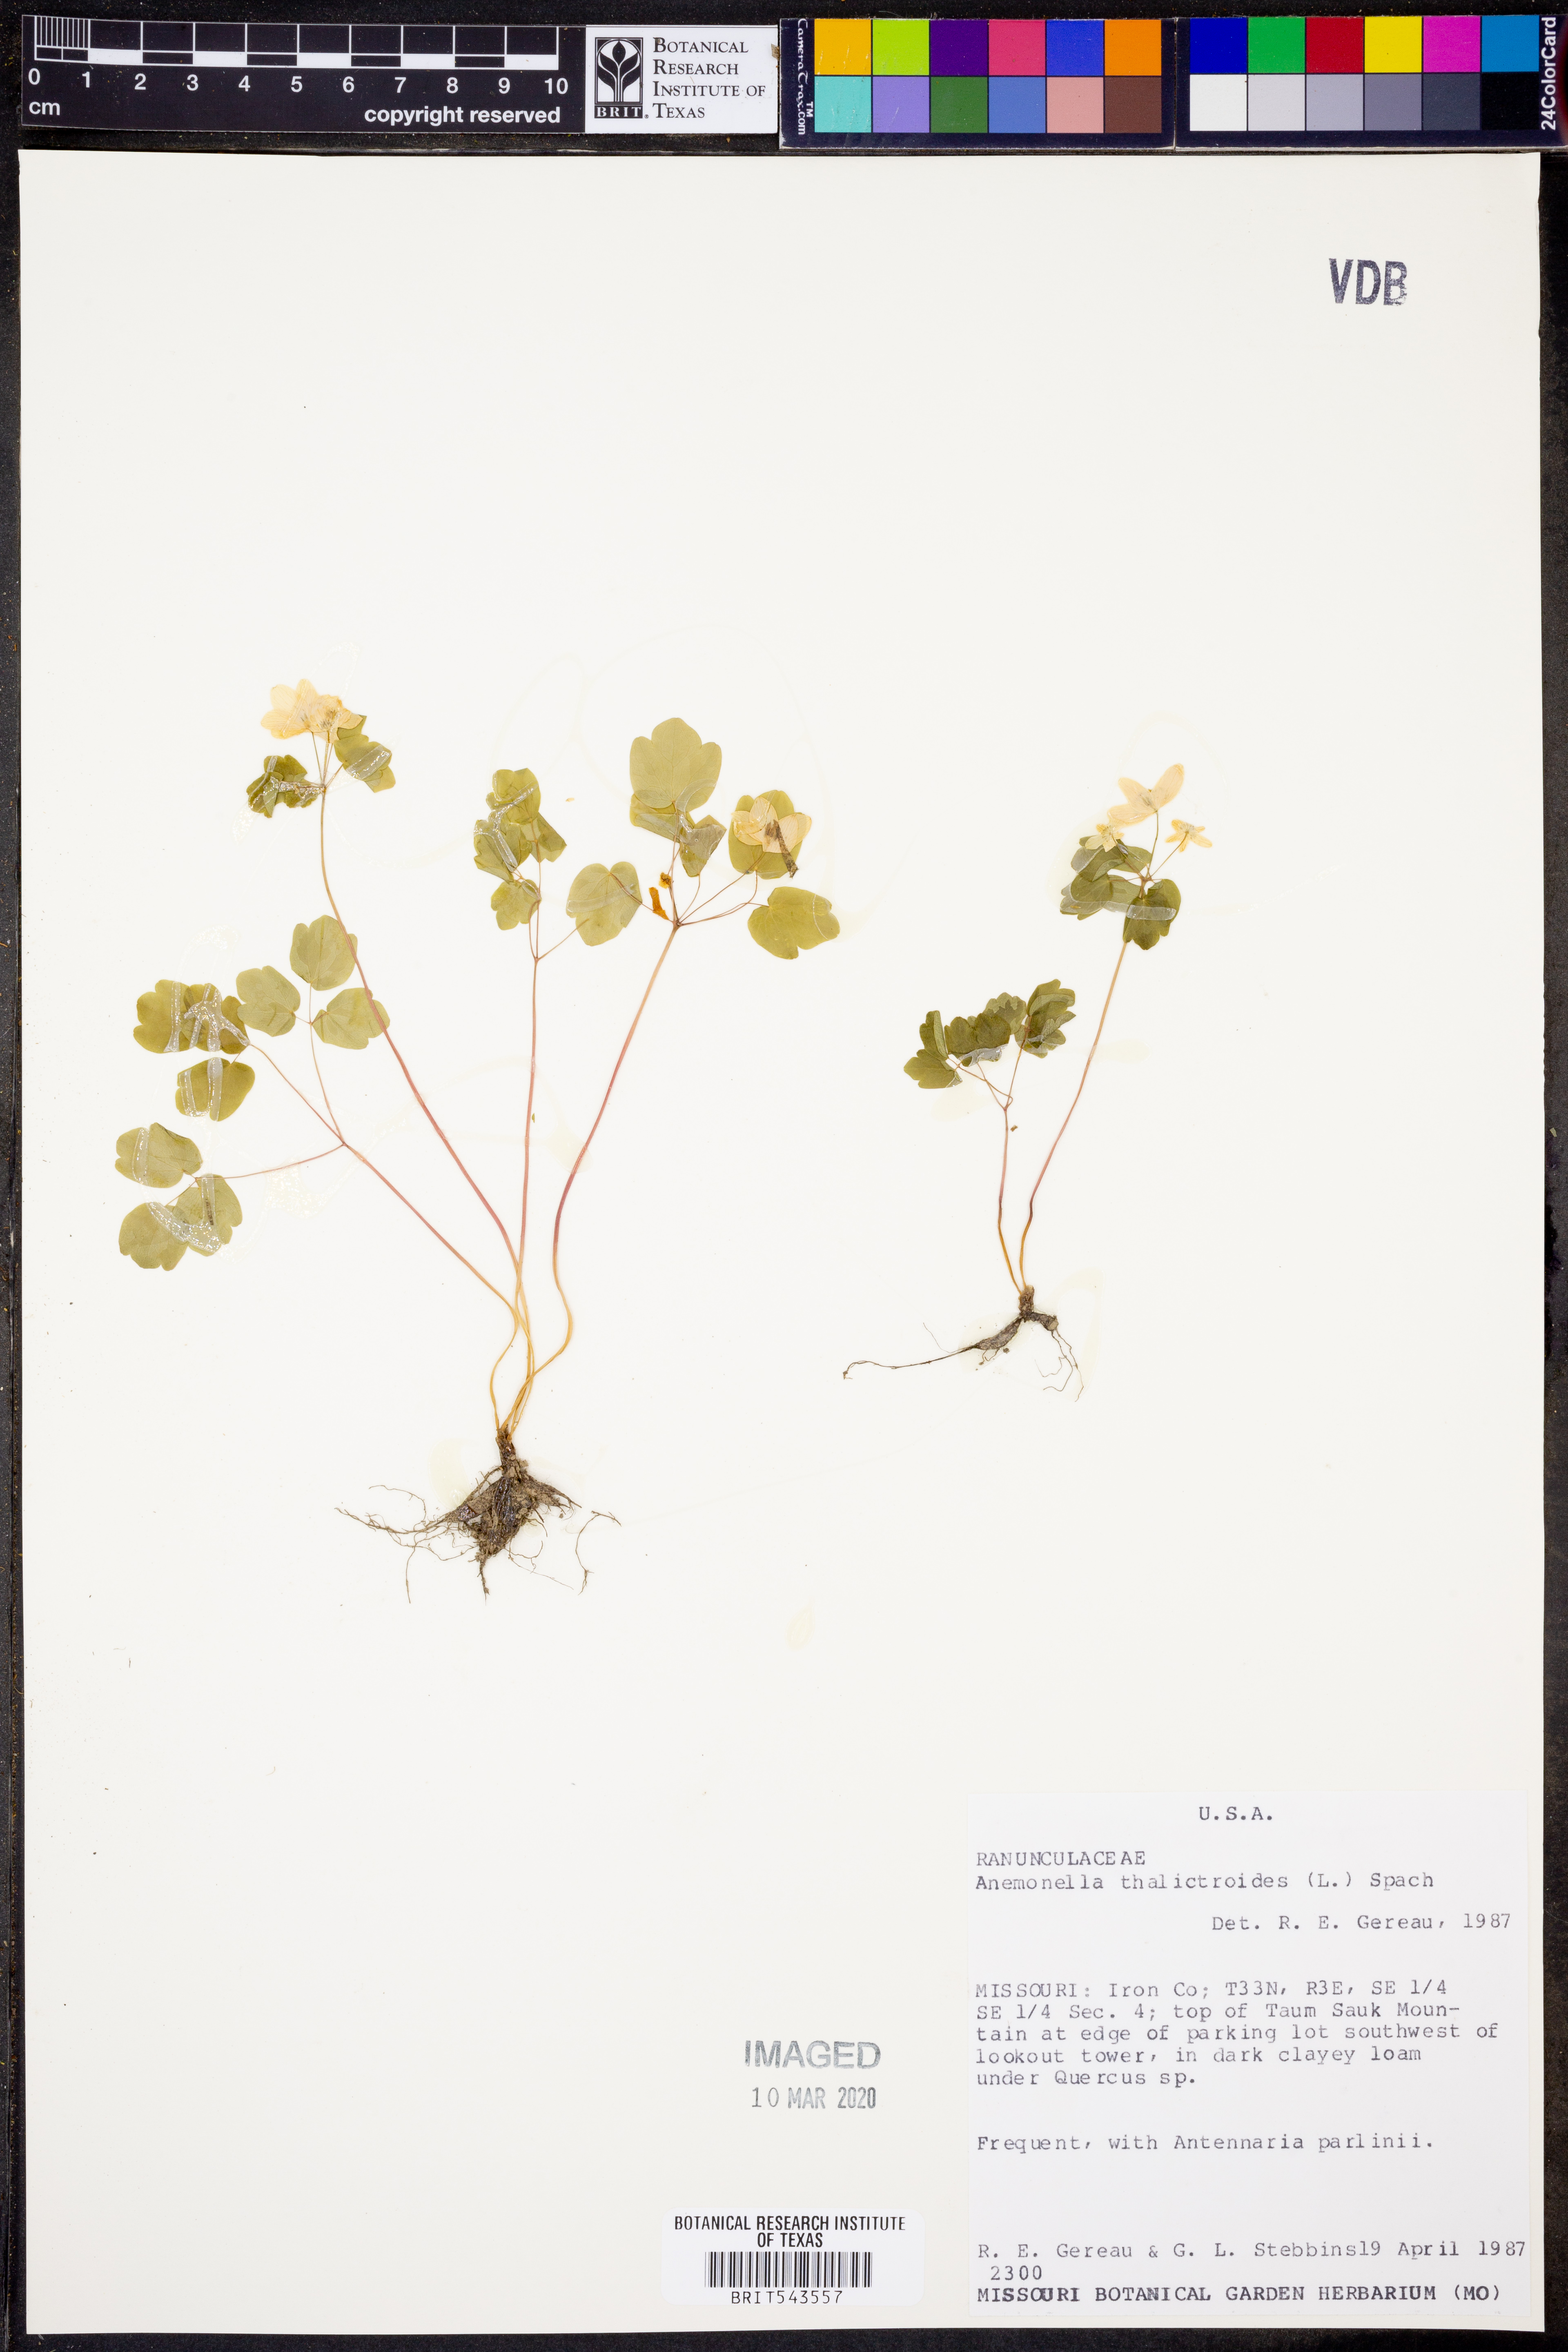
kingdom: Plantae
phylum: Tracheophyta
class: Magnoliopsida
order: Ranunculales
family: Ranunculaceae
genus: Thalictrum
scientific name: Thalictrum thalictroides
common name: Rue-anemone
